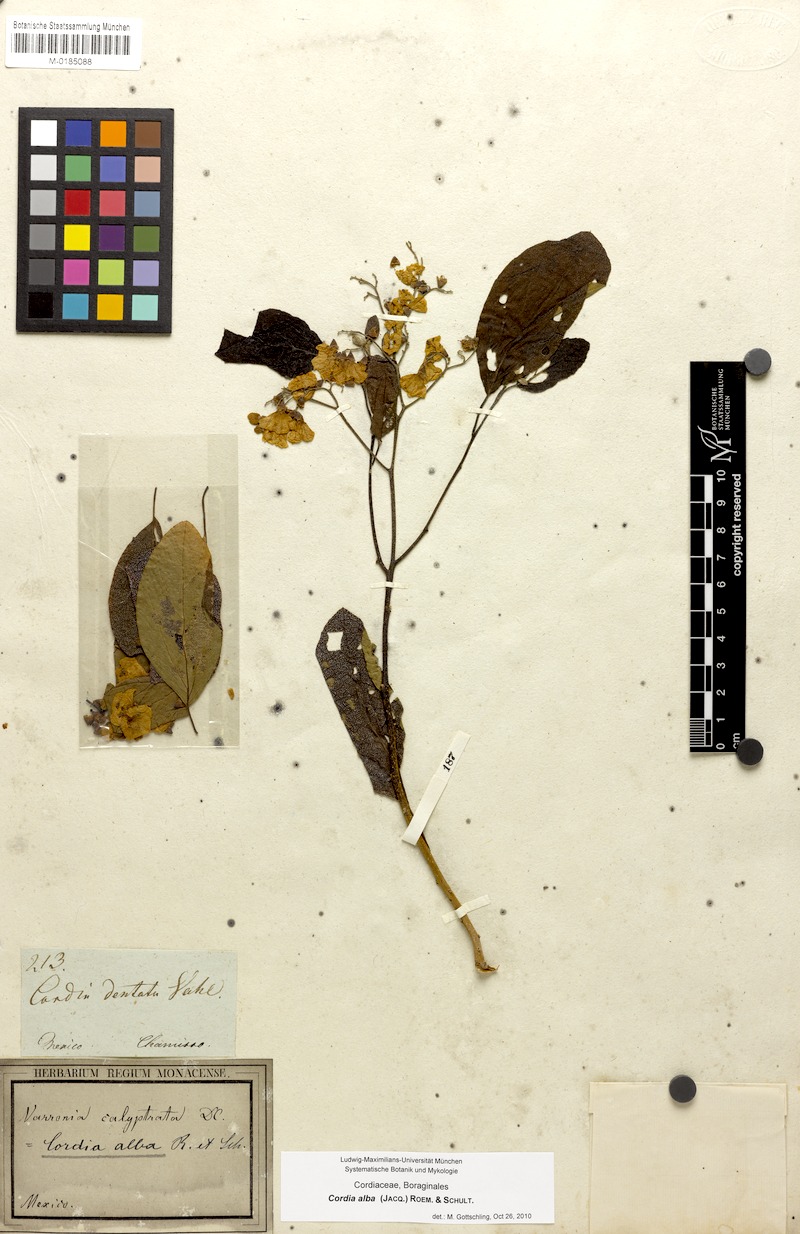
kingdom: Plantae
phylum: Tracheophyta
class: Magnoliopsida
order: Boraginales
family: Cordiaceae
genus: Cordia
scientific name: Cordia dentata
